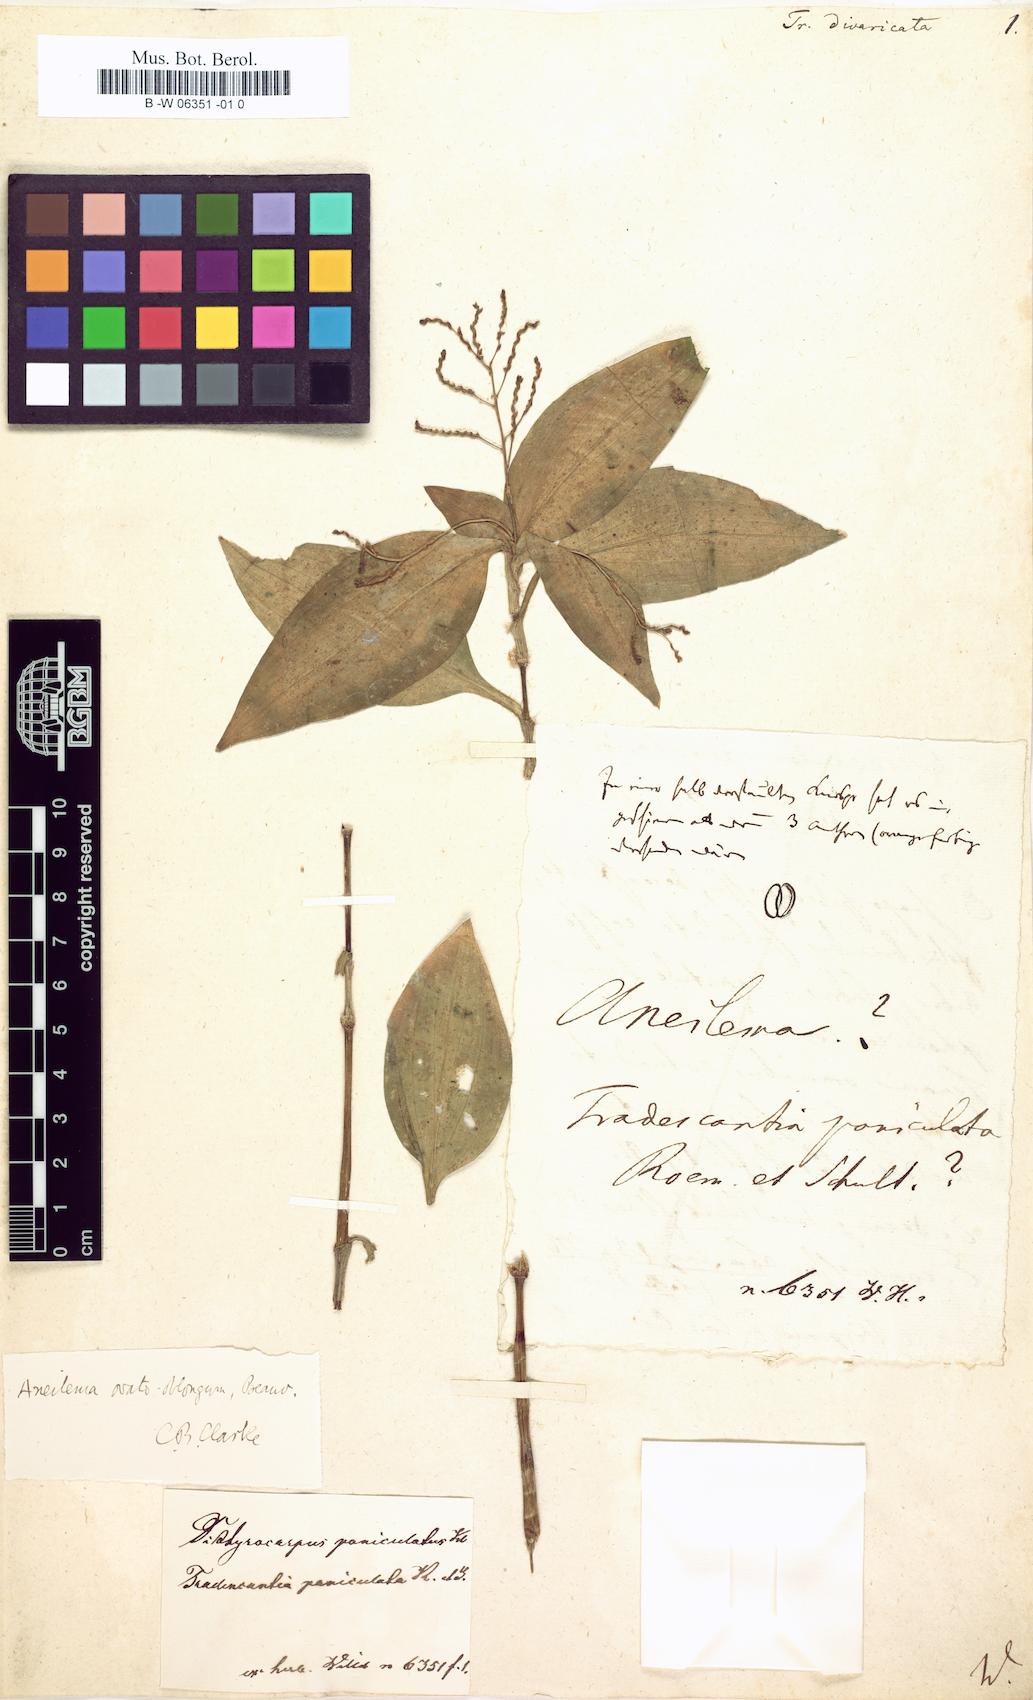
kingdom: Plantae
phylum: Tracheophyta
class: Liliopsida
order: Commelinales
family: Commelinaceae
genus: Dichorisandra
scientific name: Dichorisandra hexandra
